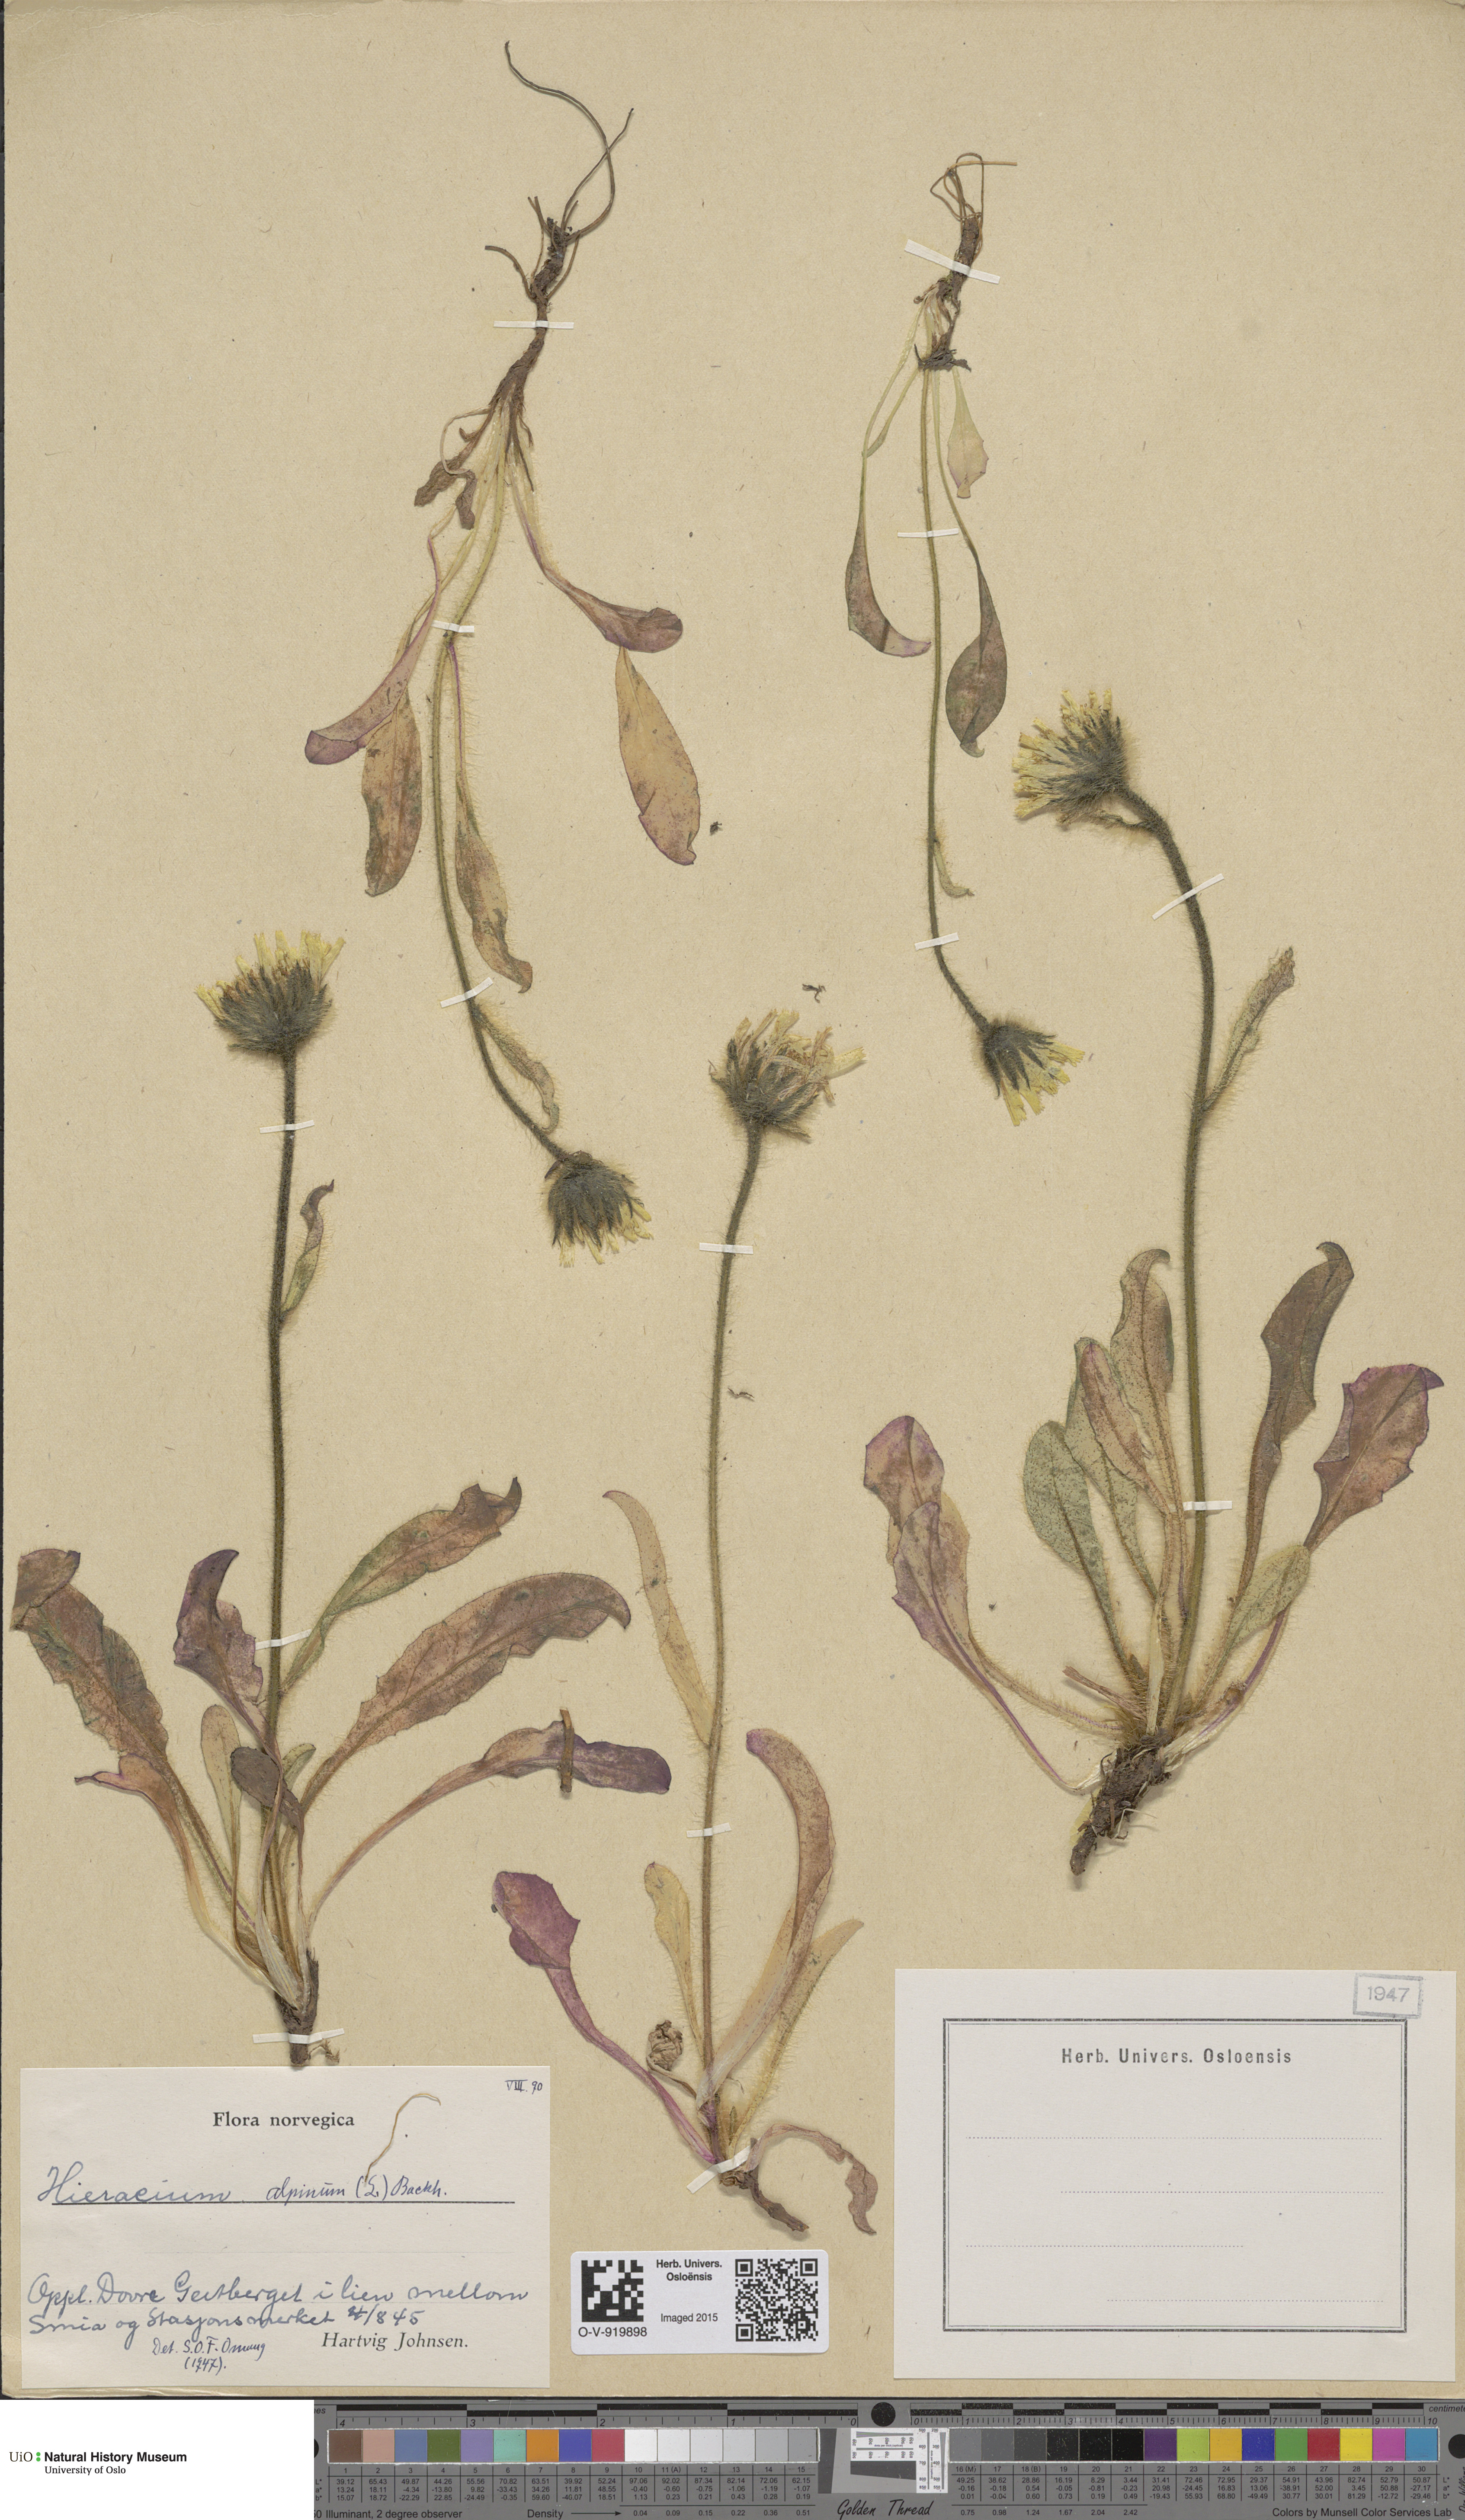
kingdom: Plantae
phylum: Tracheophyta
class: Magnoliopsida
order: Asterales
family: Asteraceae
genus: Hieracium
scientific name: Hieracium alpinum
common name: Alpine hawkweed
